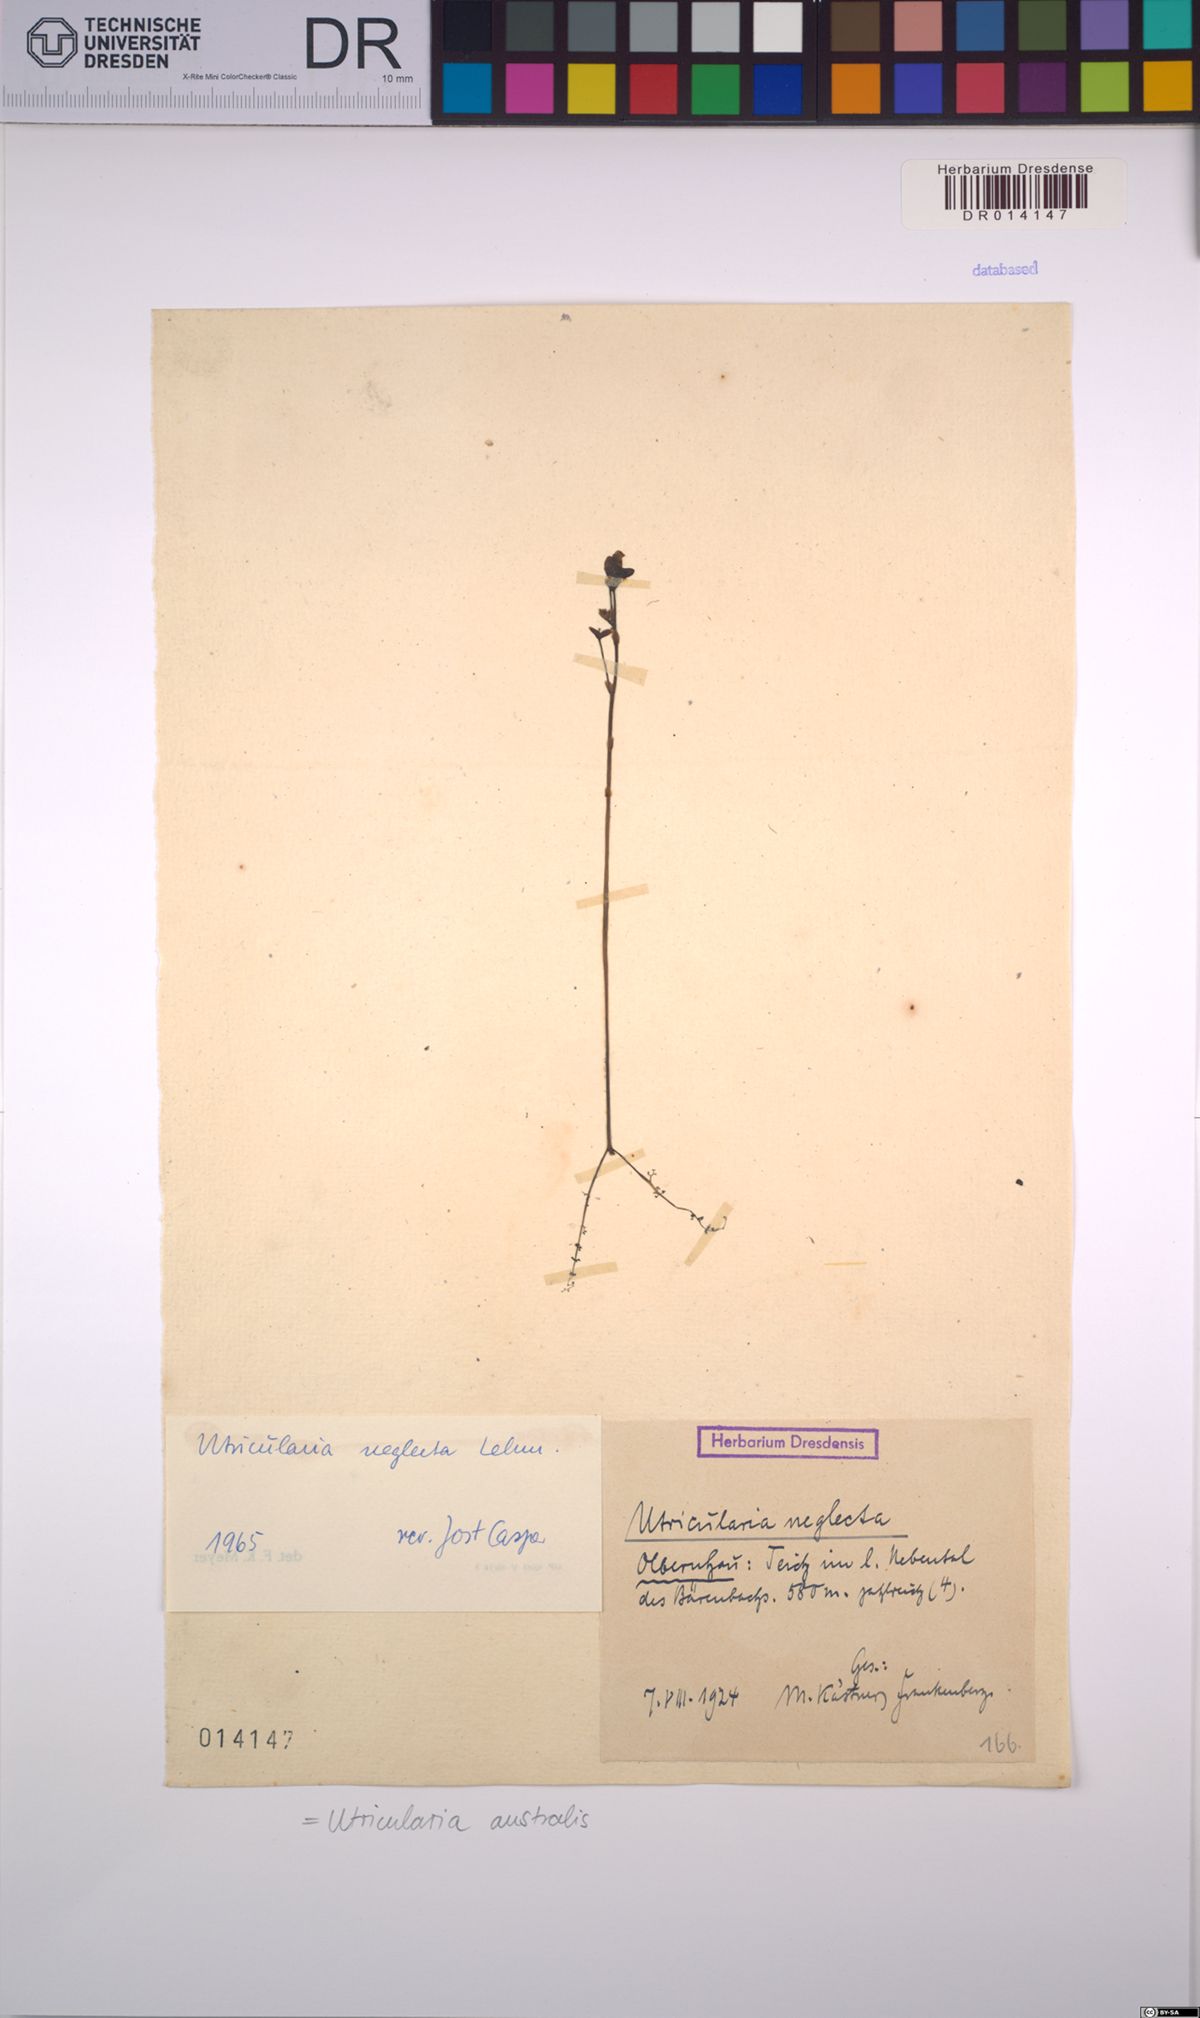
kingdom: Plantae
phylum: Tracheophyta
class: Magnoliopsida
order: Lamiales
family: Lentibulariaceae
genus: Utricularia
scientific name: Utricularia australis
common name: Bladderwort
